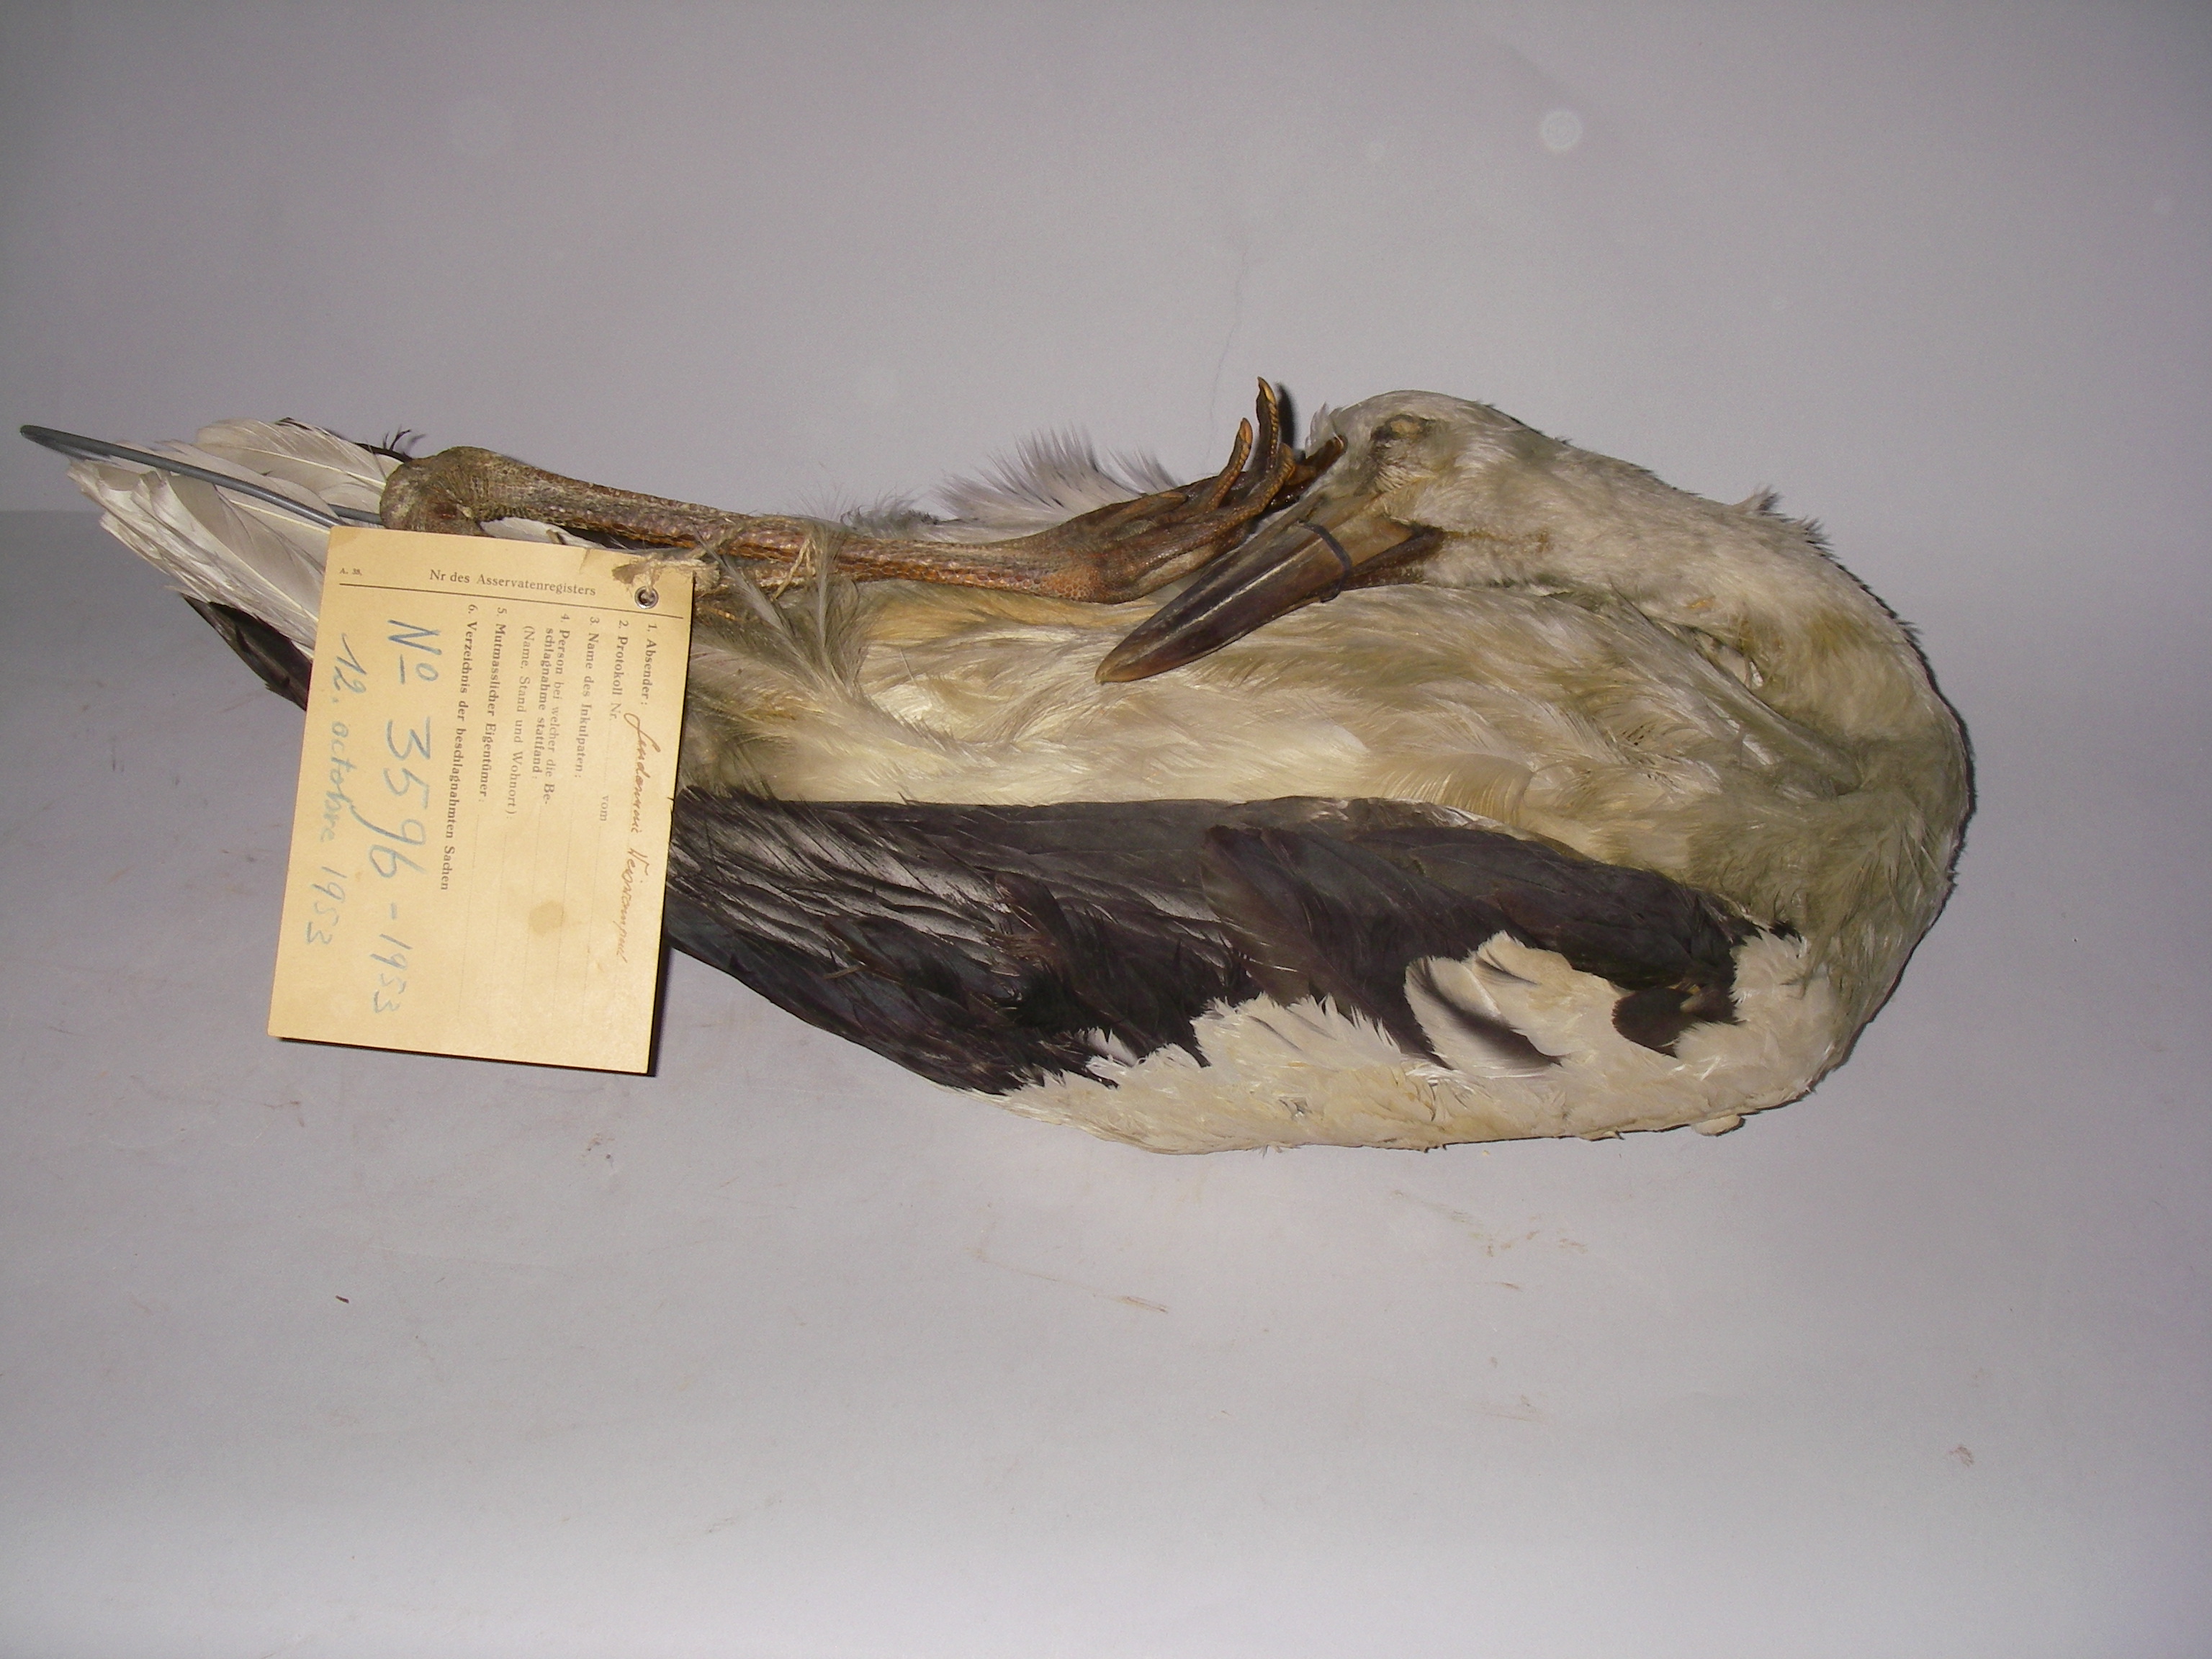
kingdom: Animalia
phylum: Chordata
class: Aves
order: Ciconiiformes
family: Ciconiidae
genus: Ciconia
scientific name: Ciconia ciconia
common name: White stork
